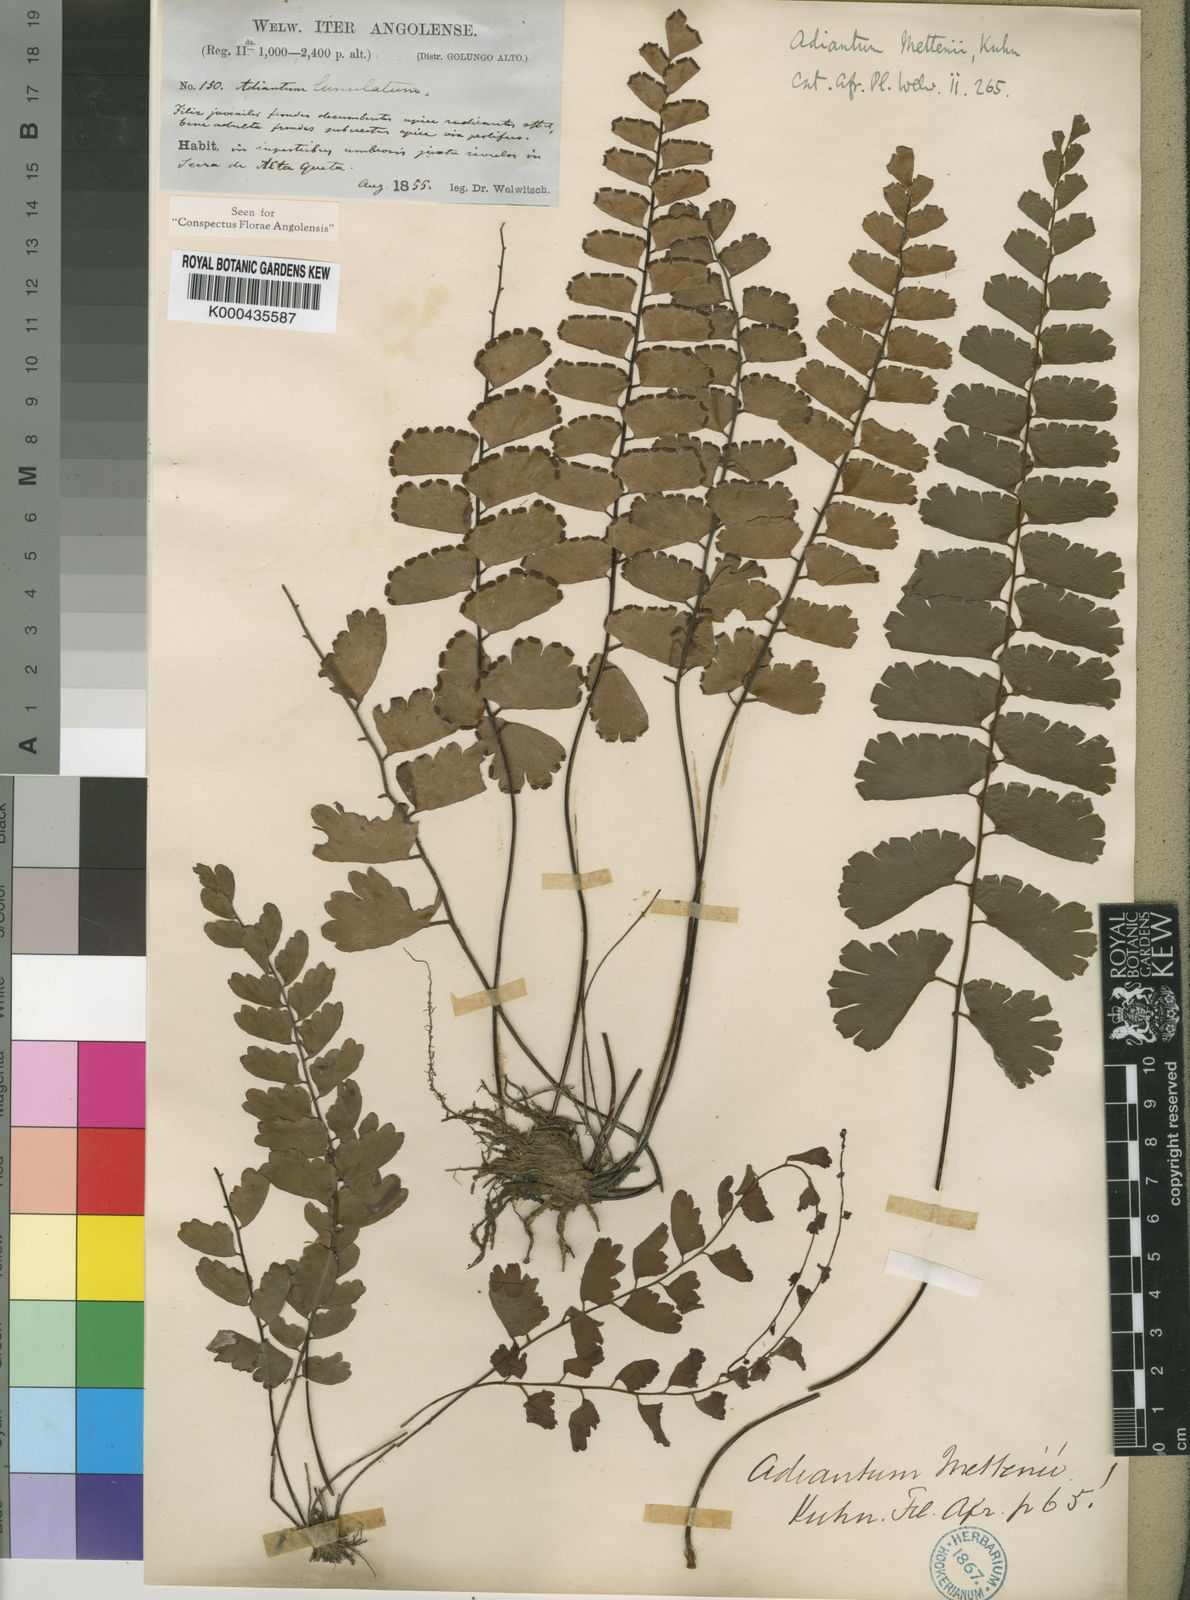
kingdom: Plantae
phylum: Tracheophyta
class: Polypodiopsida
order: Polypodiales
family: Pteridaceae
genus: Adiantum
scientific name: Adiantum
